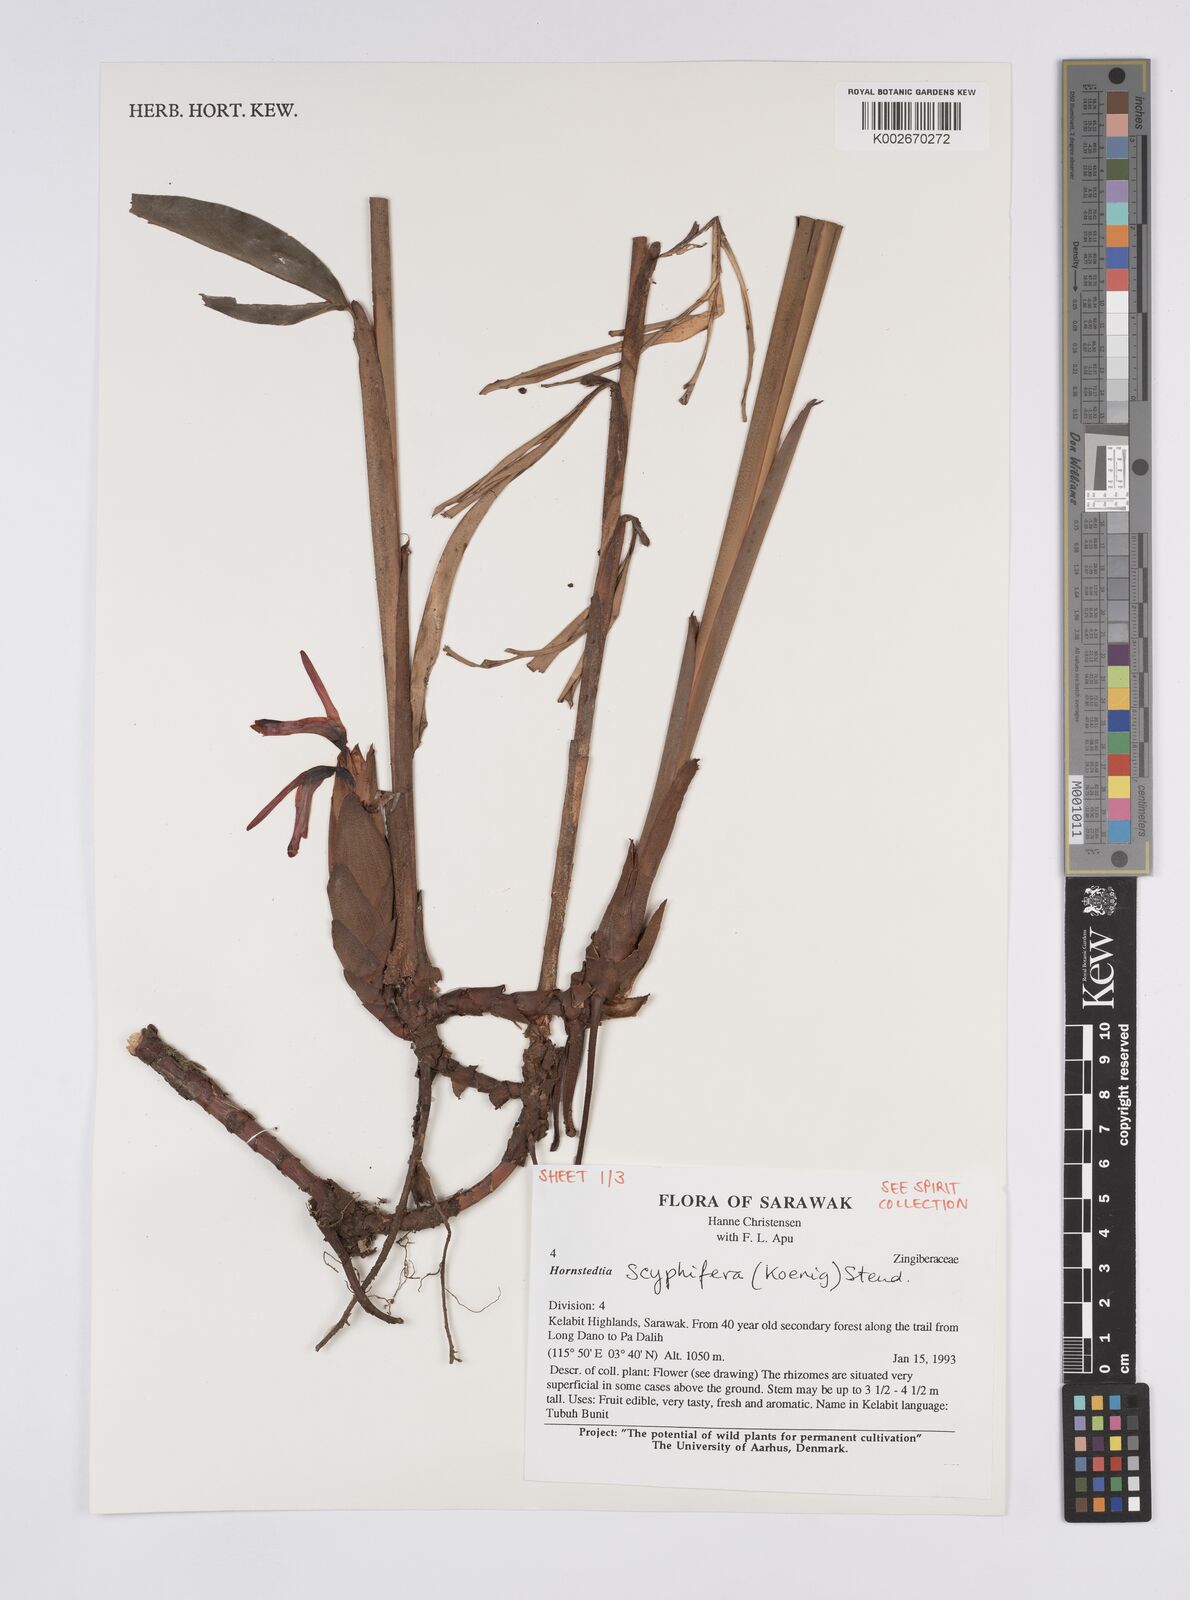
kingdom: Plantae
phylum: Tracheophyta
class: Liliopsida
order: Zingiberales
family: Zingiberaceae
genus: Hornstedtia
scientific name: Hornstedtia scyphifera
